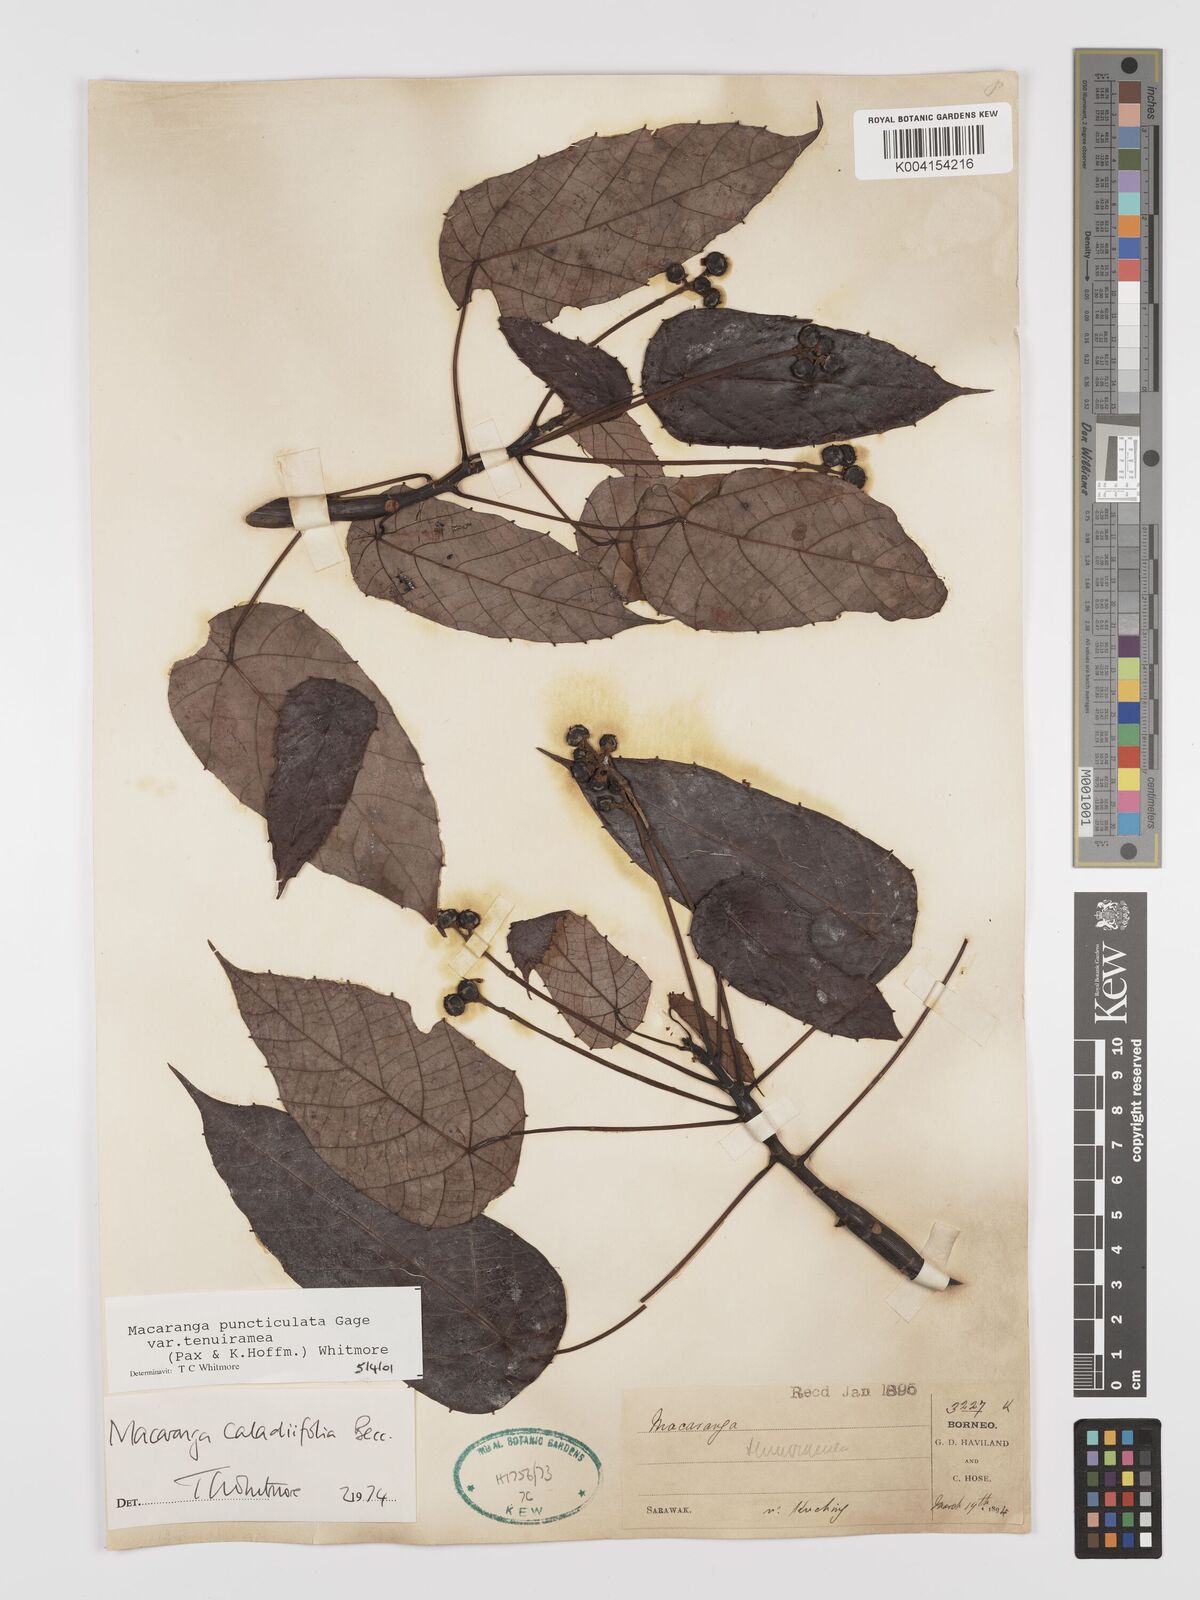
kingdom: Plantae
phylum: Tracheophyta
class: Magnoliopsida
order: Malpighiales
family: Euphorbiaceae
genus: Macaranga
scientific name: Macaranga puncticulata
